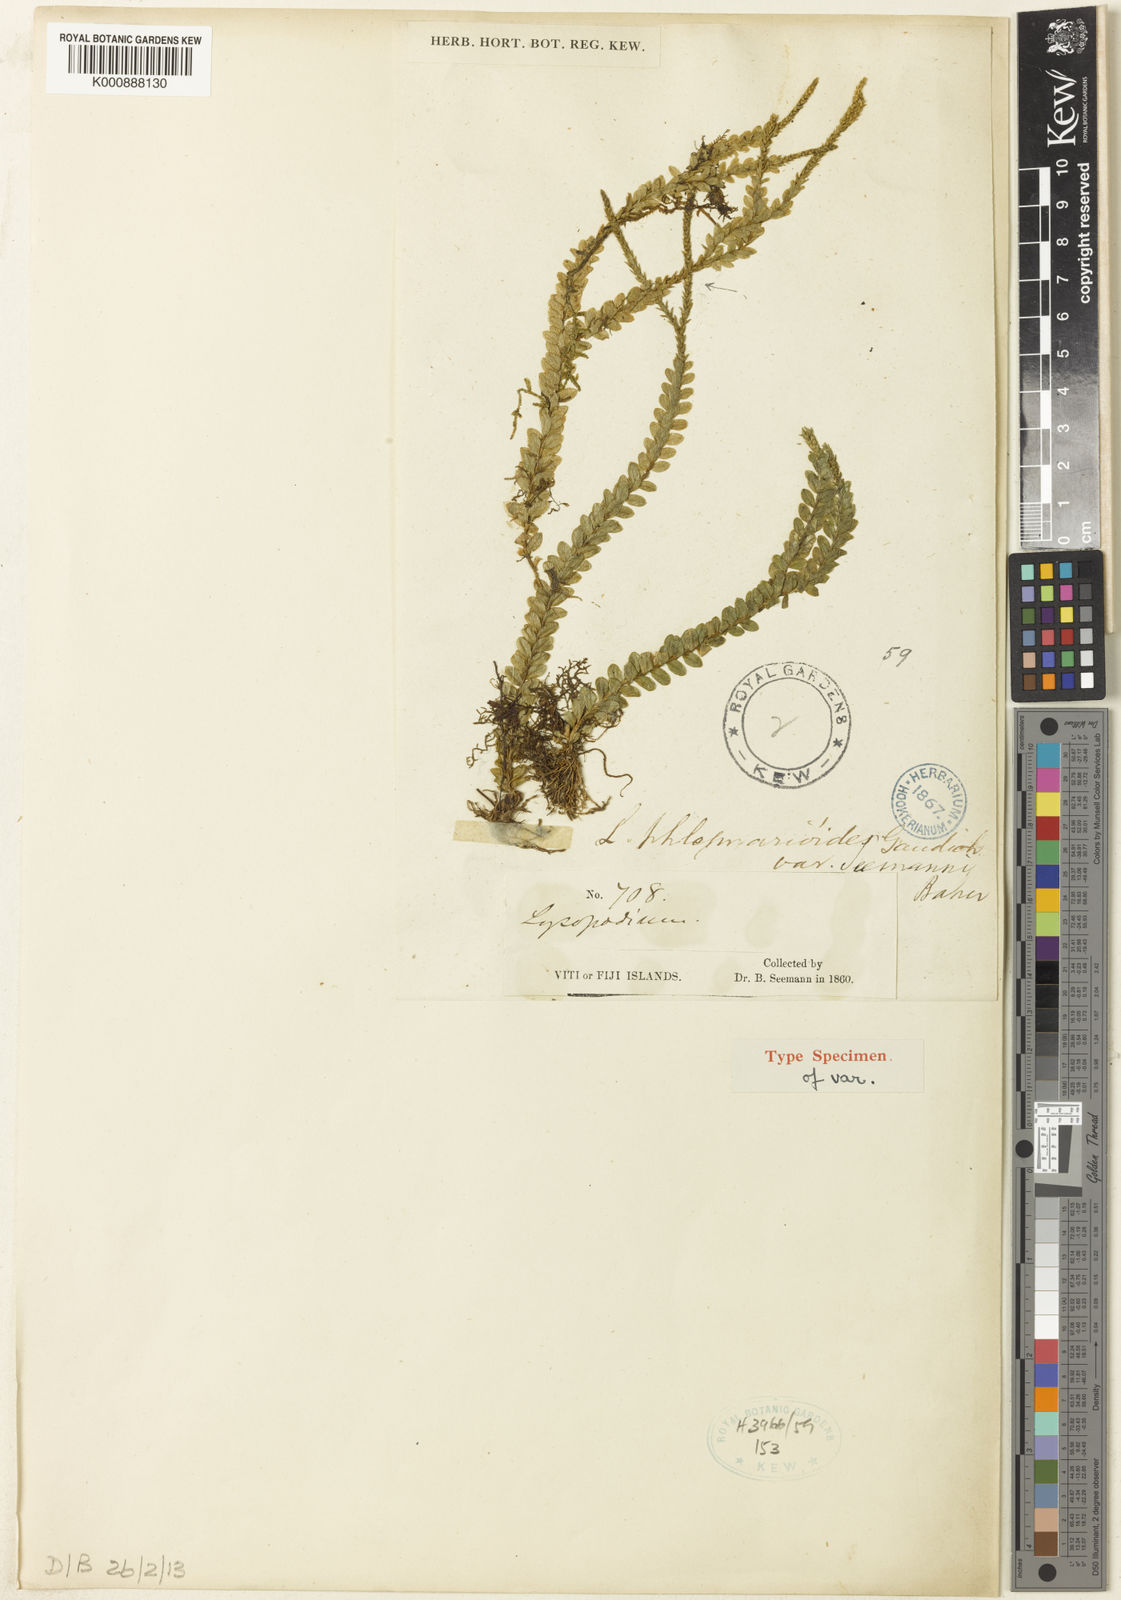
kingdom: Plantae
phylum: Tracheophyta
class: Lycopodiopsida
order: Lycopodiales
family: Lycopodiaceae
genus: Phlegmariurus
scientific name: Phlegmariurus phlegmarioides
